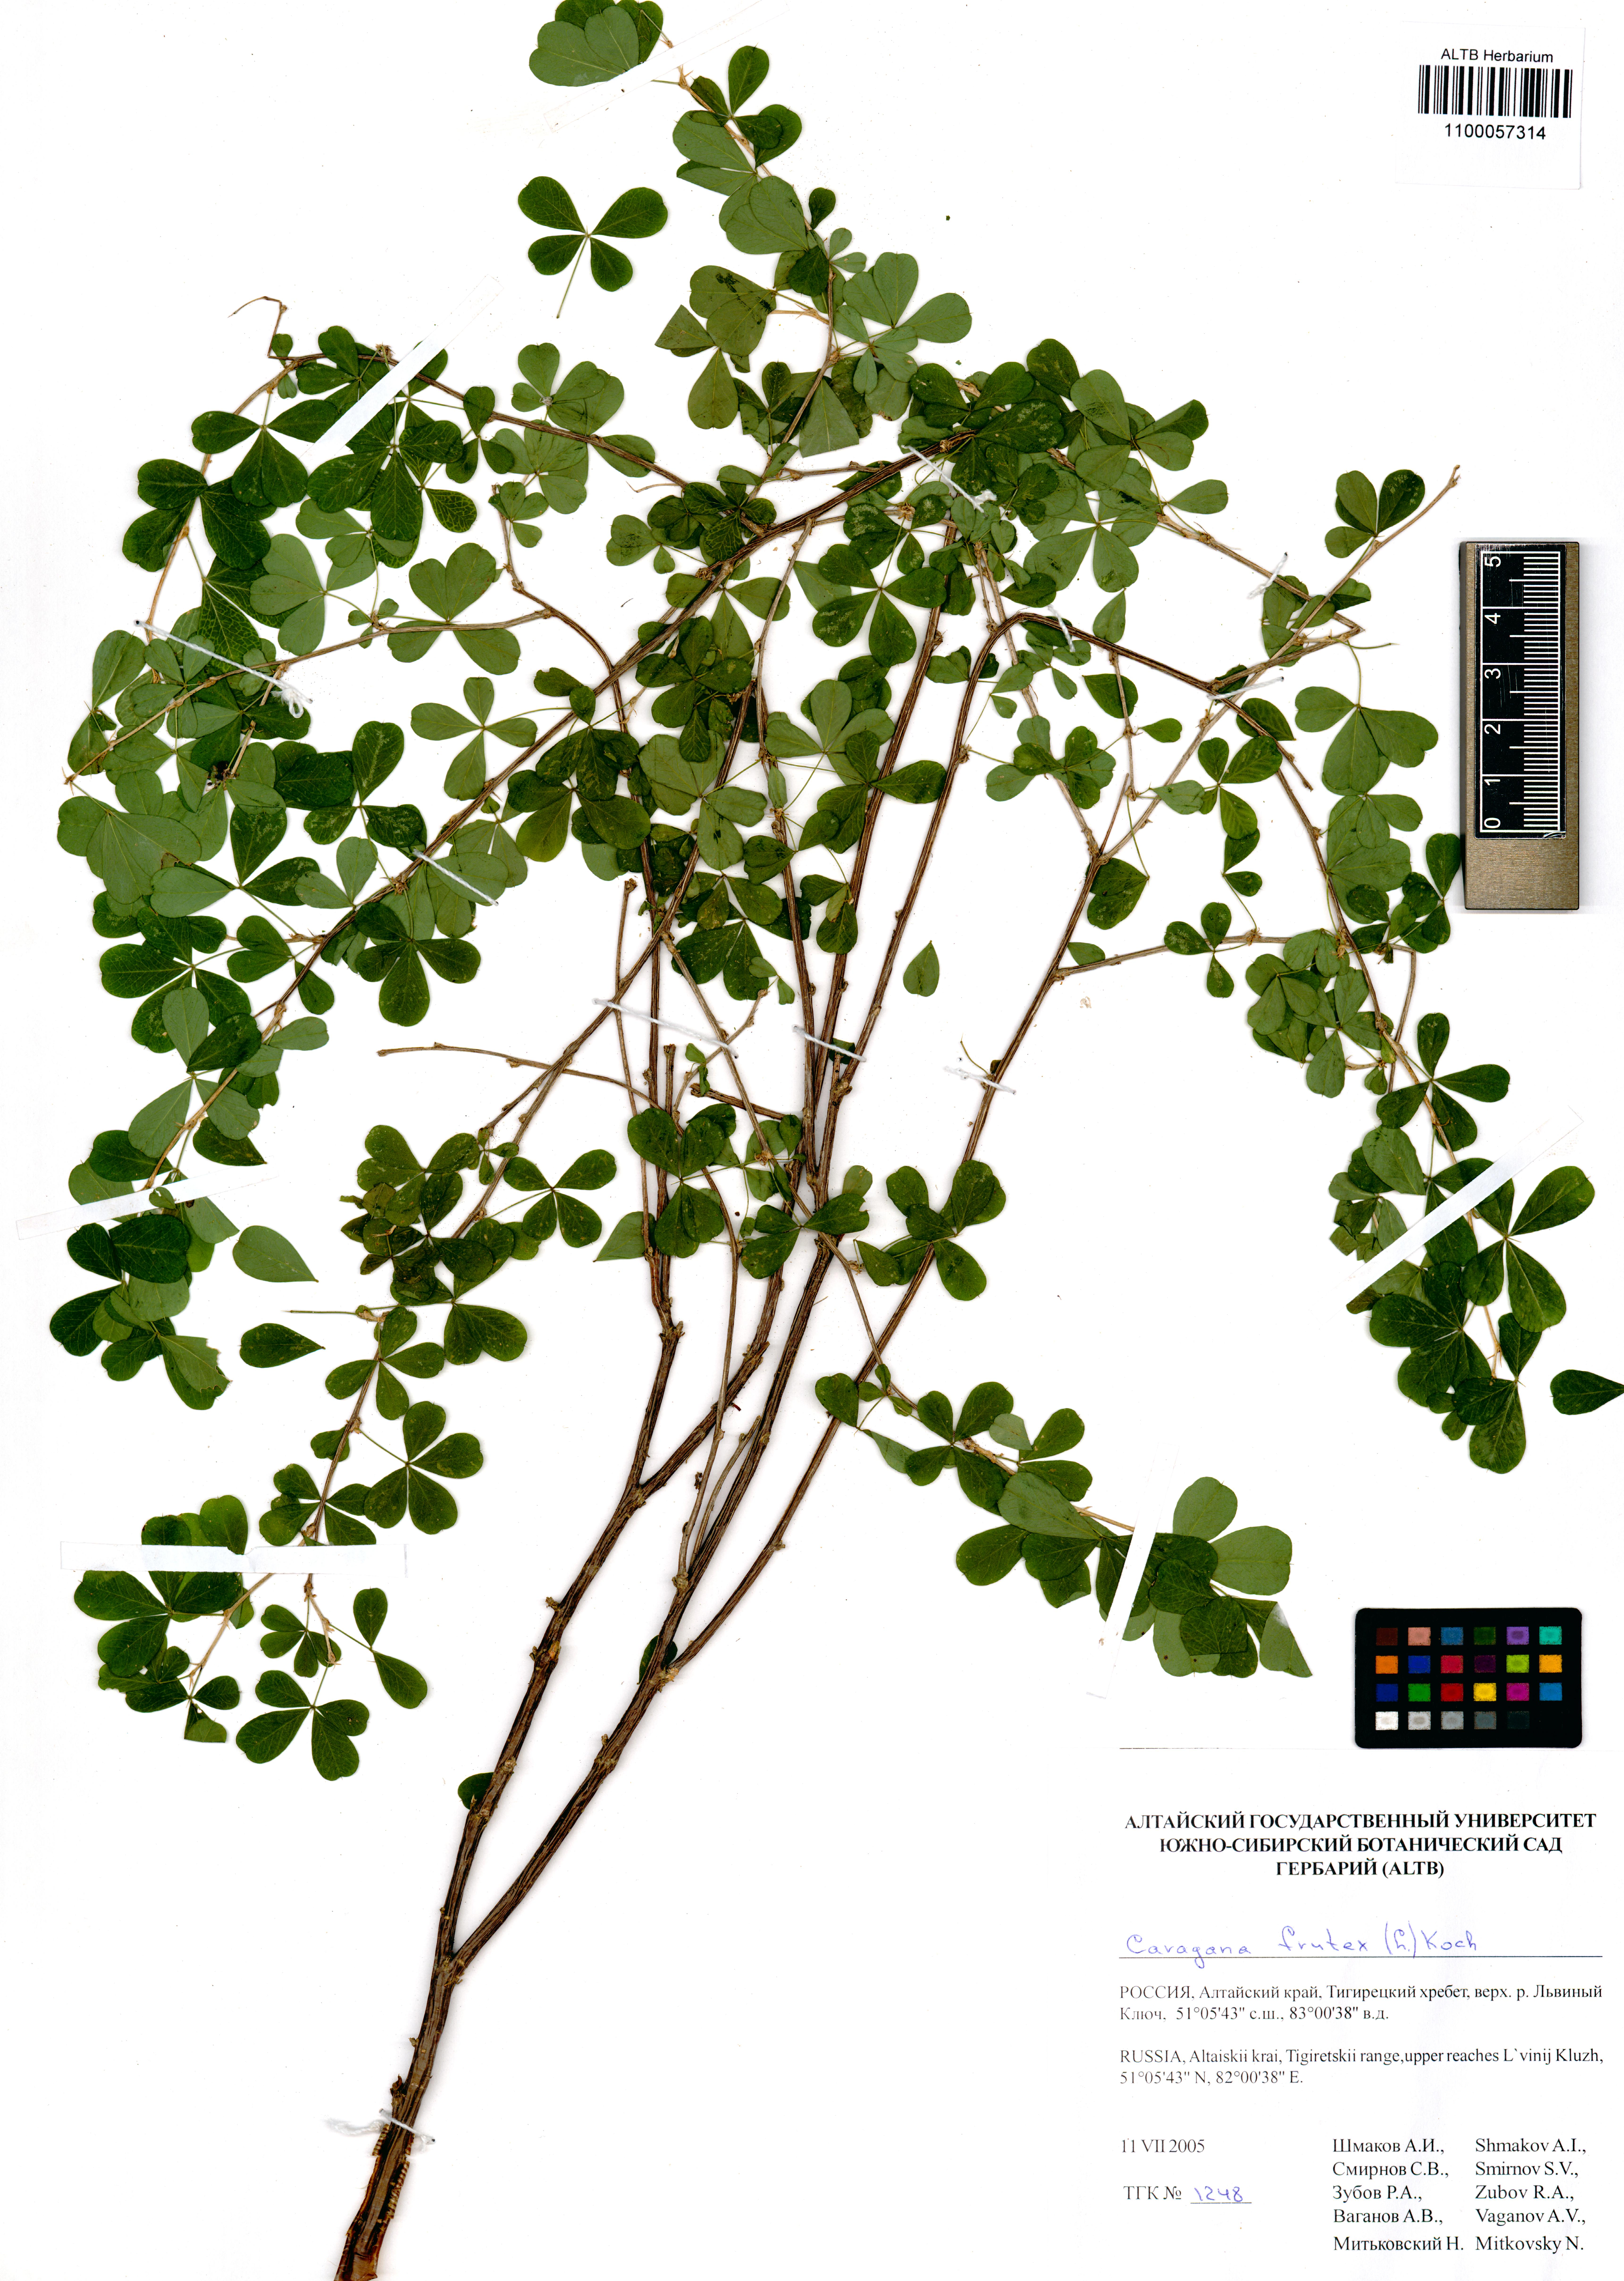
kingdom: Plantae
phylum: Tracheophyta
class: Magnoliopsida
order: Fabales
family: Fabaceae
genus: Caragana
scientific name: Caragana frutex
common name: Russian peashrub
